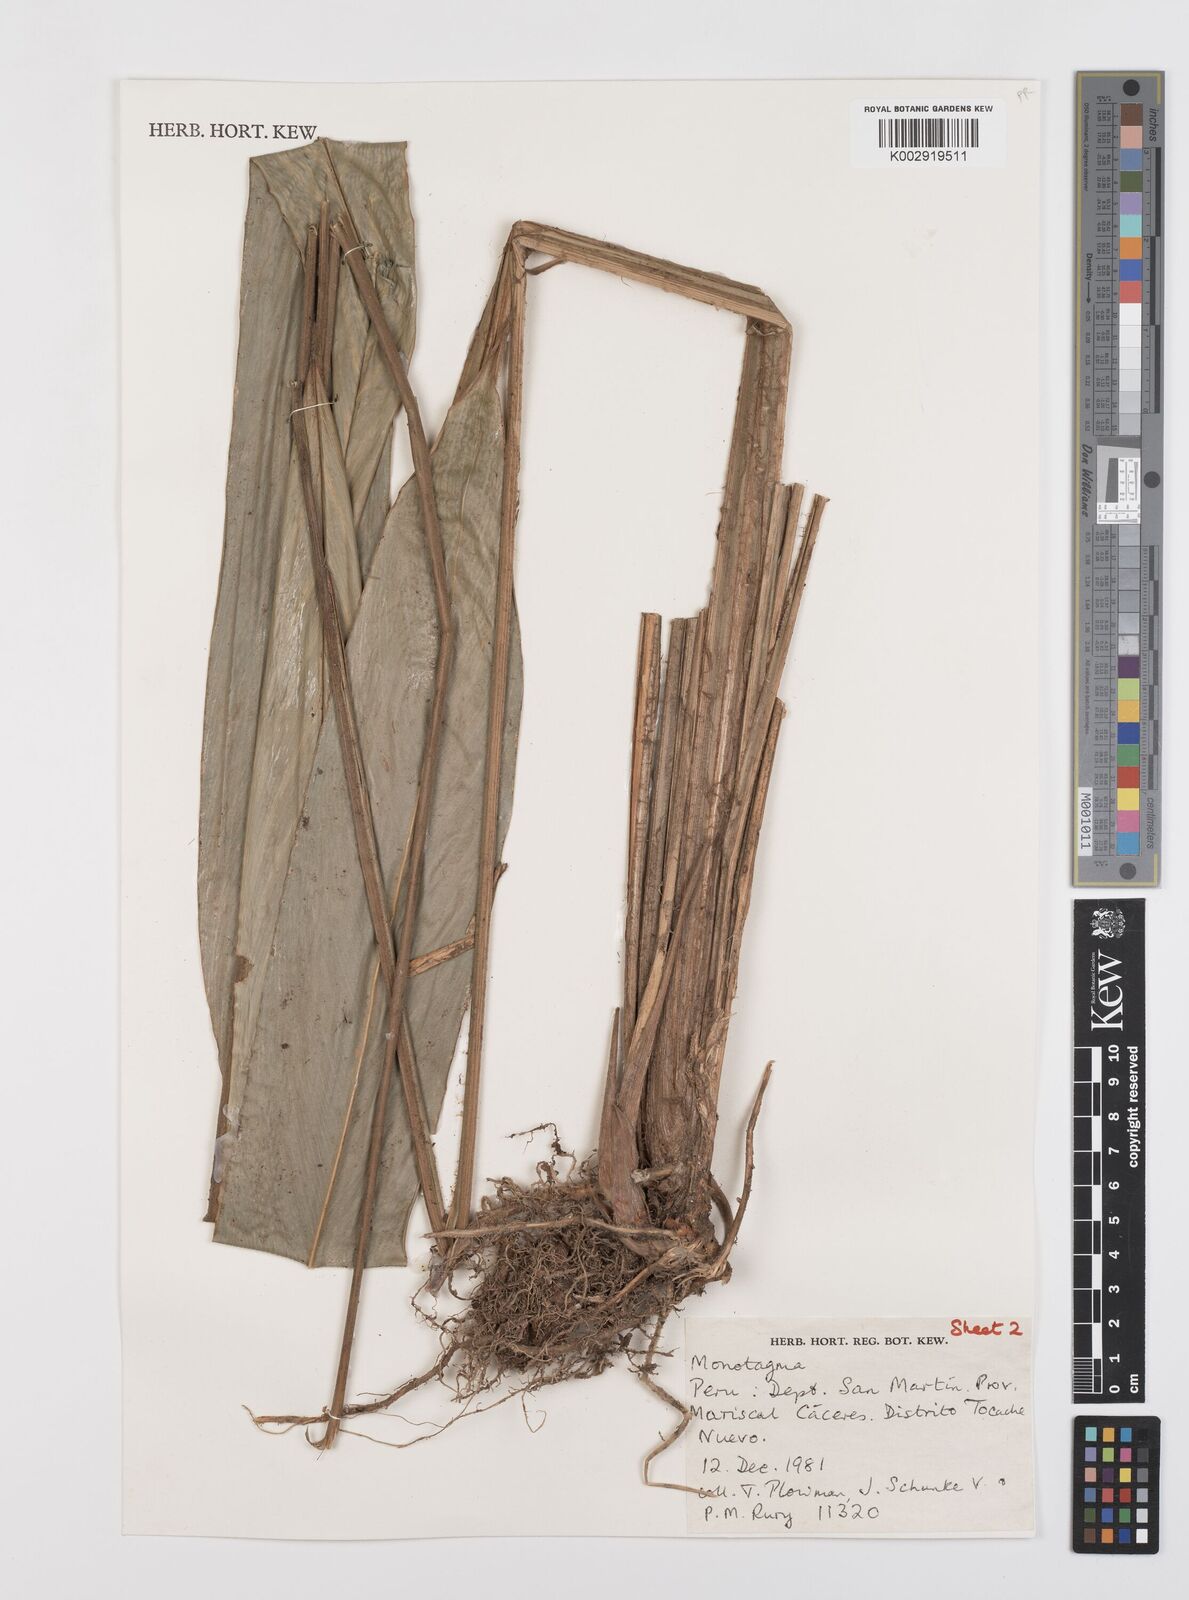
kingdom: Plantae
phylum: Tracheophyta
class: Liliopsida
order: Zingiberales
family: Marantaceae
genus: Monotagma
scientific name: Monotagma angustissimum
